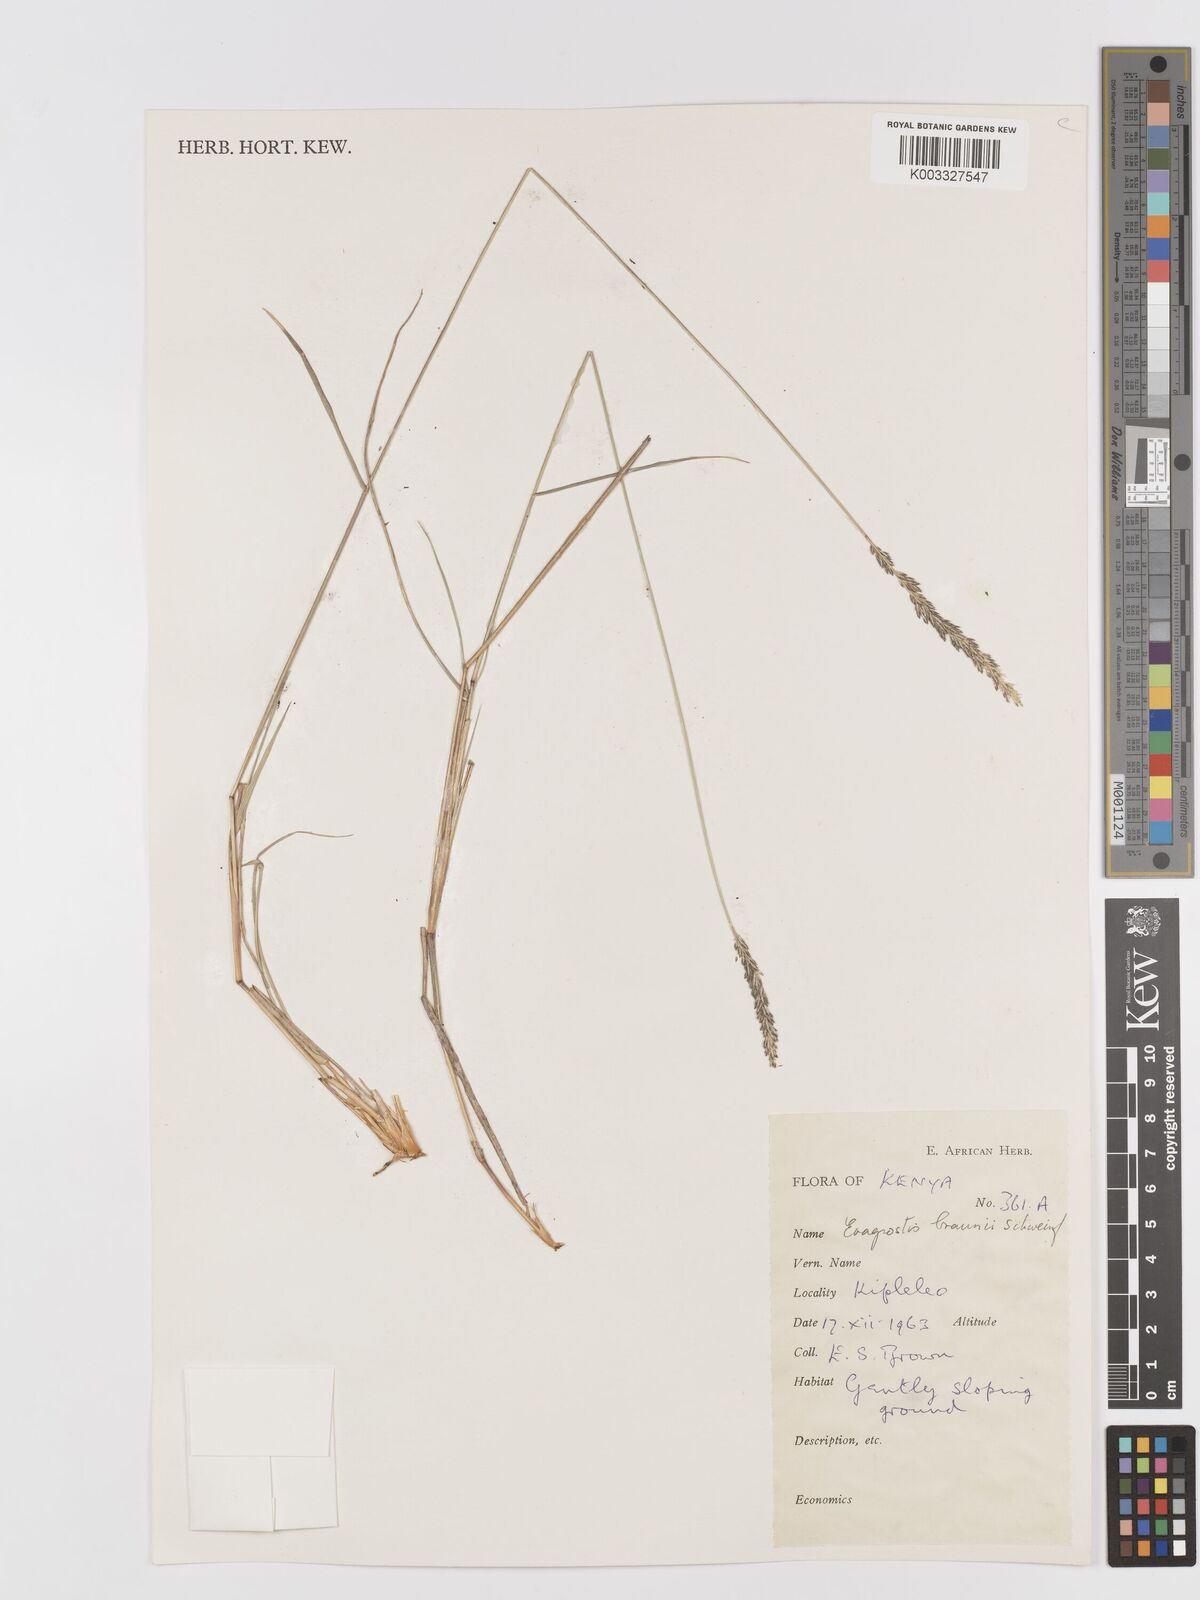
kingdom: Plantae
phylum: Tracheophyta
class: Liliopsida
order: Poales
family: Poaceae
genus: Eragrostis
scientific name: Eragrostis braunii
